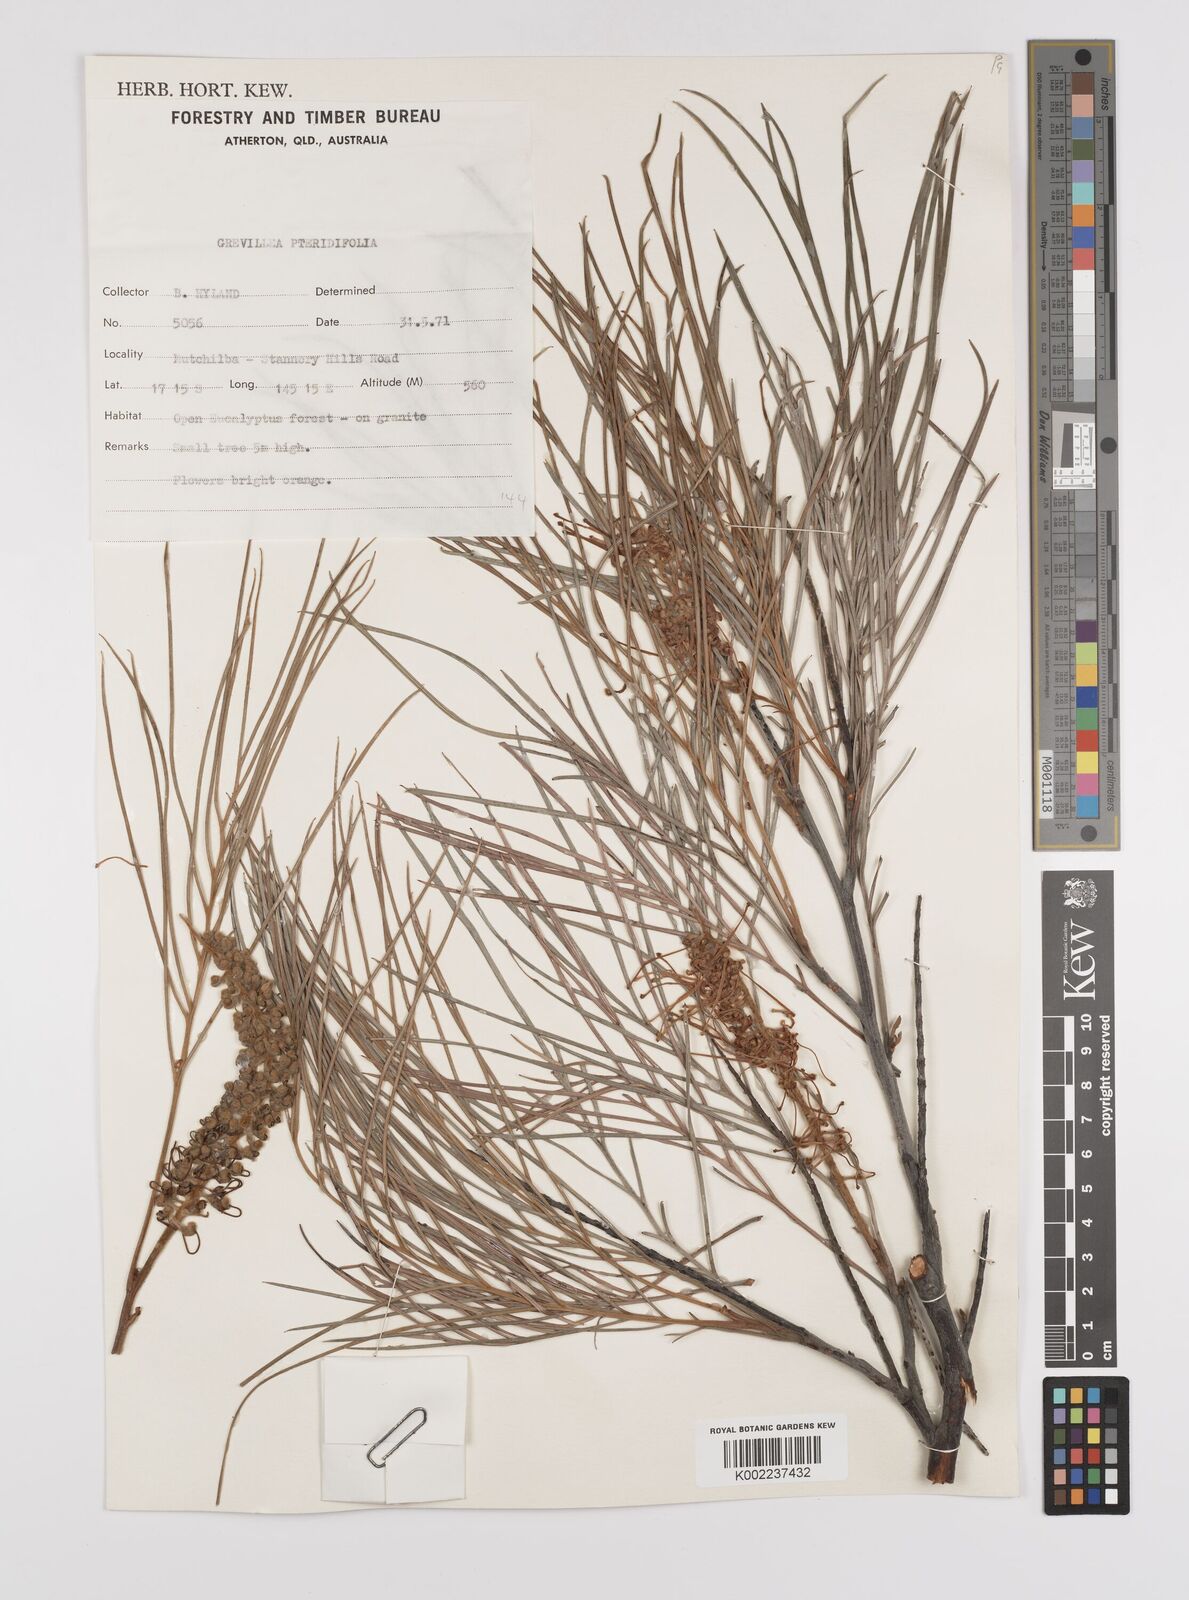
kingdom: Plantae
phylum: Tracheophyta
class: Magnoliopsida
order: Proteales
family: Proteaceae
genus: Grevillea
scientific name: Grevillea pteridifolia
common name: Golden grevillea
